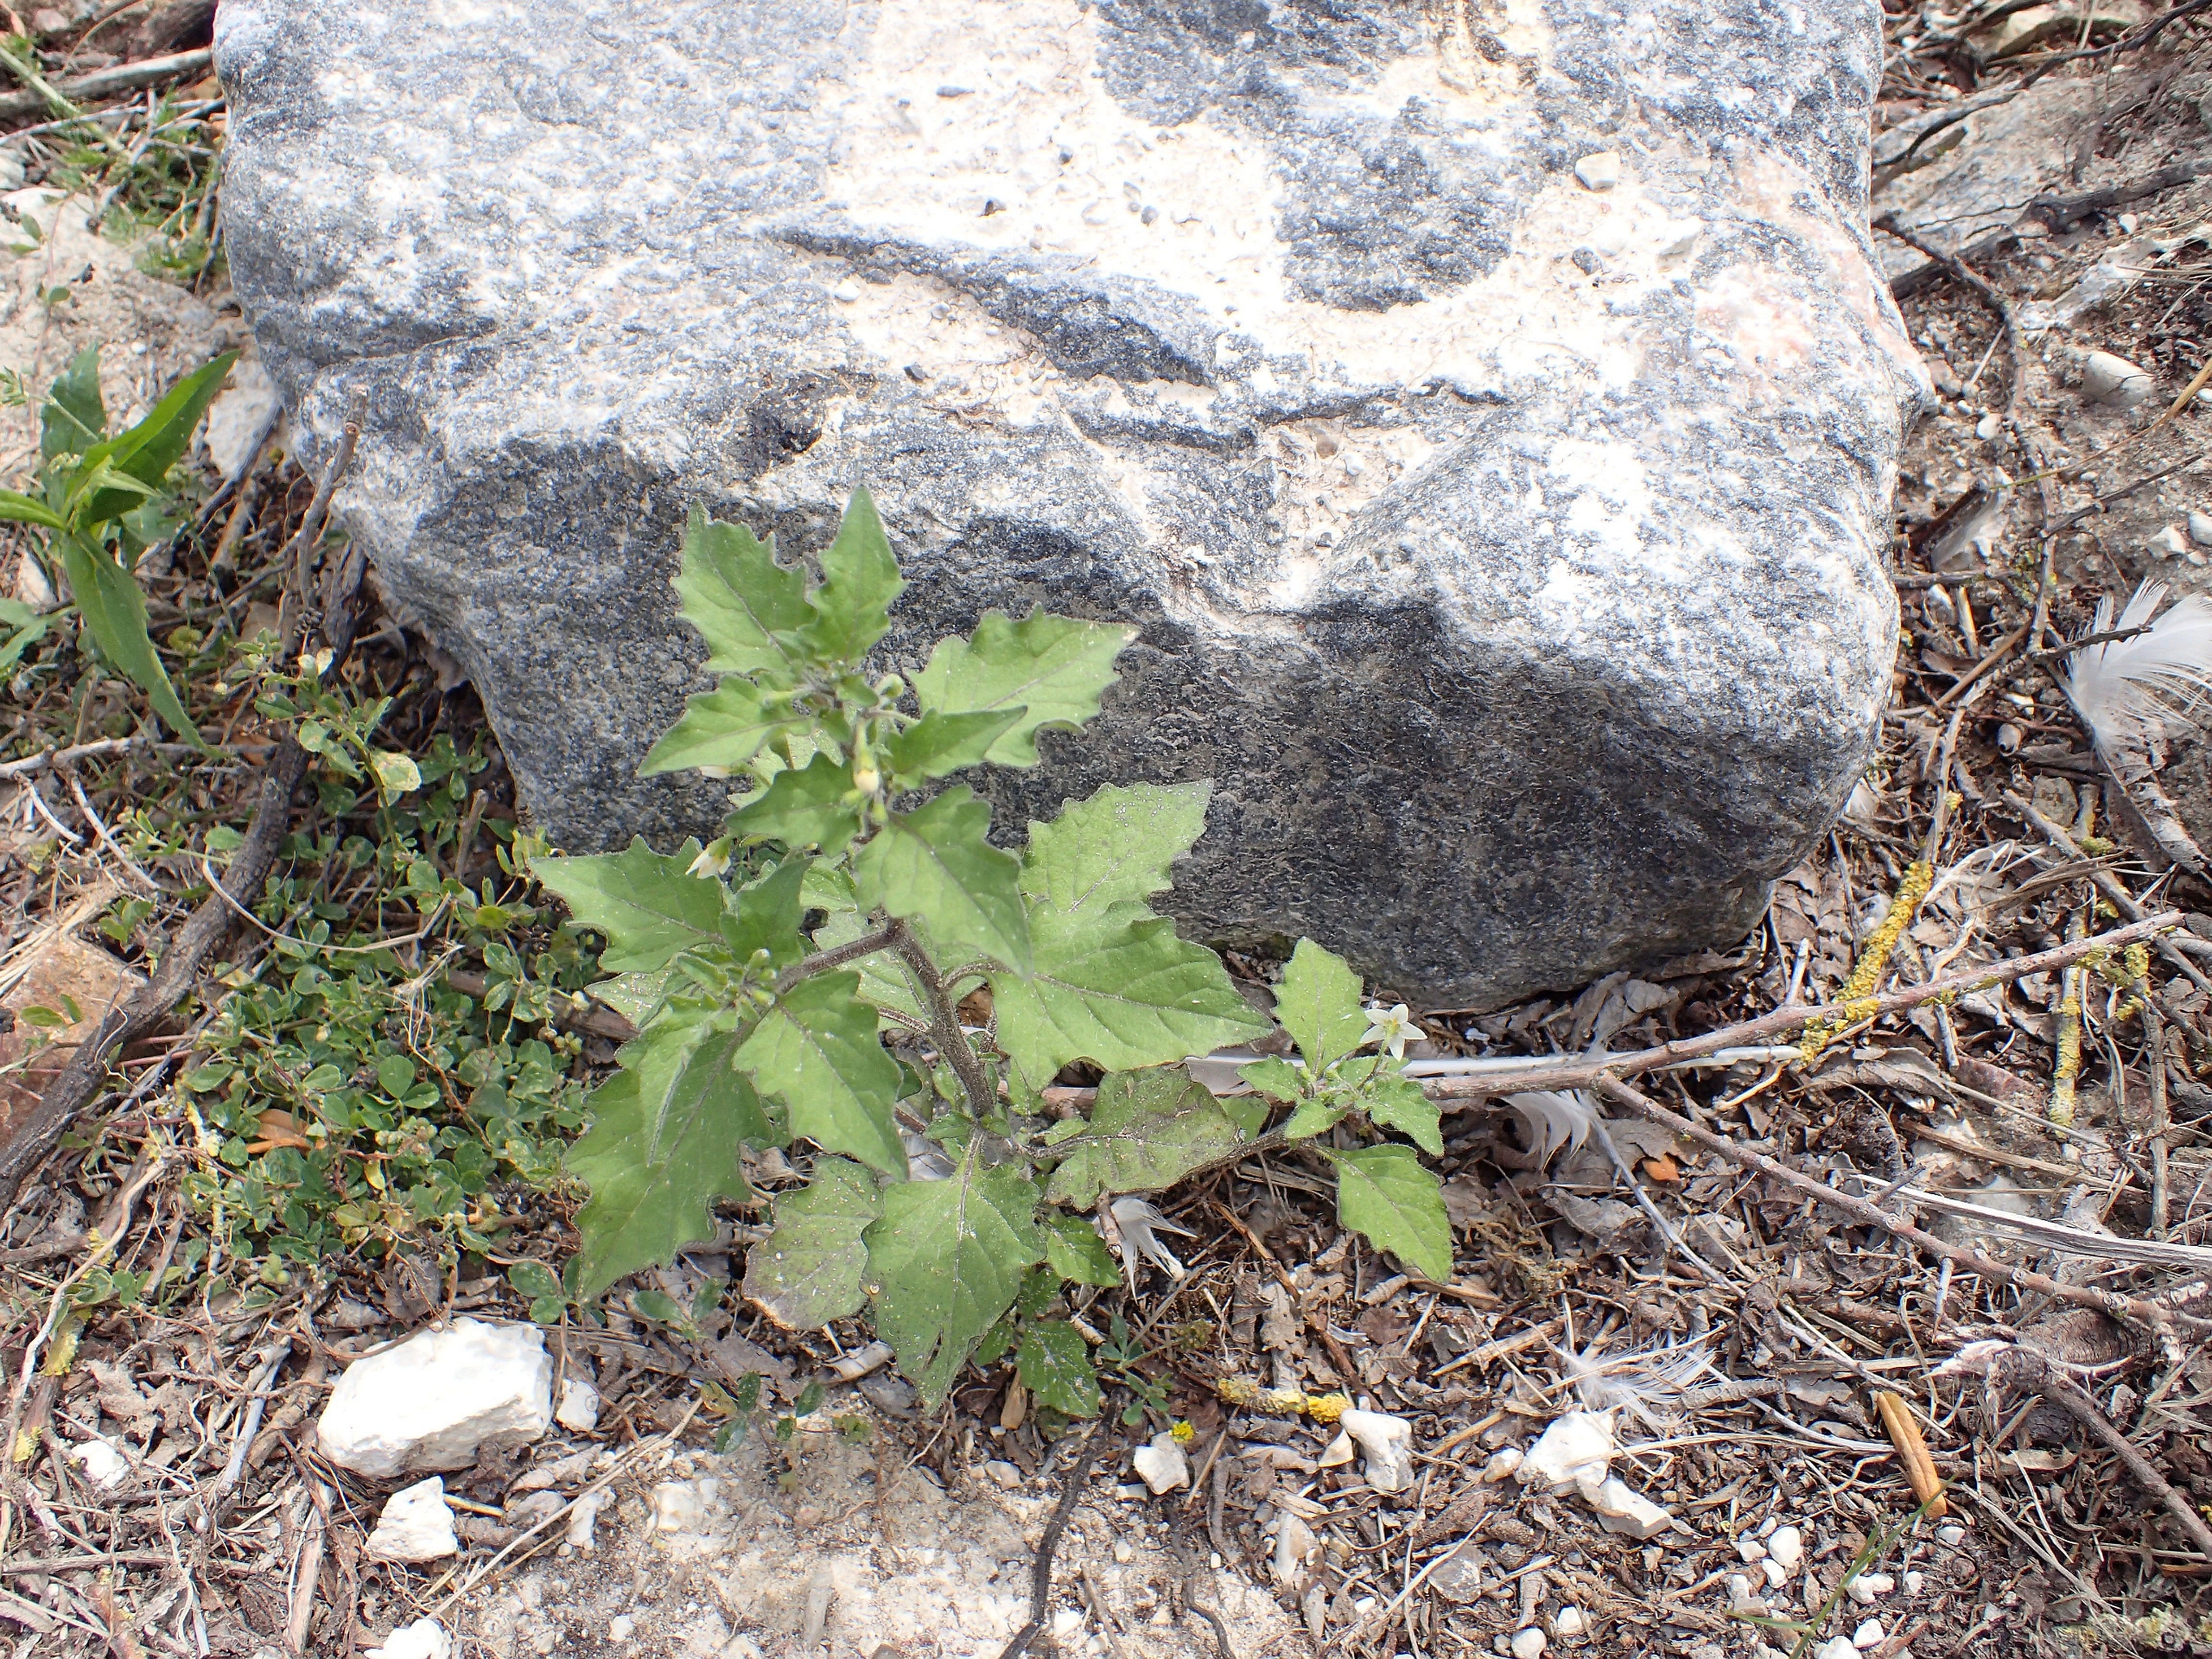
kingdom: Plantae
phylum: Tracheophyta
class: Magnoliopsida
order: Solanales
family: Solanaceae
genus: Solanum
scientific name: Solanum decipiens
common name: Kirtel-natskygge
